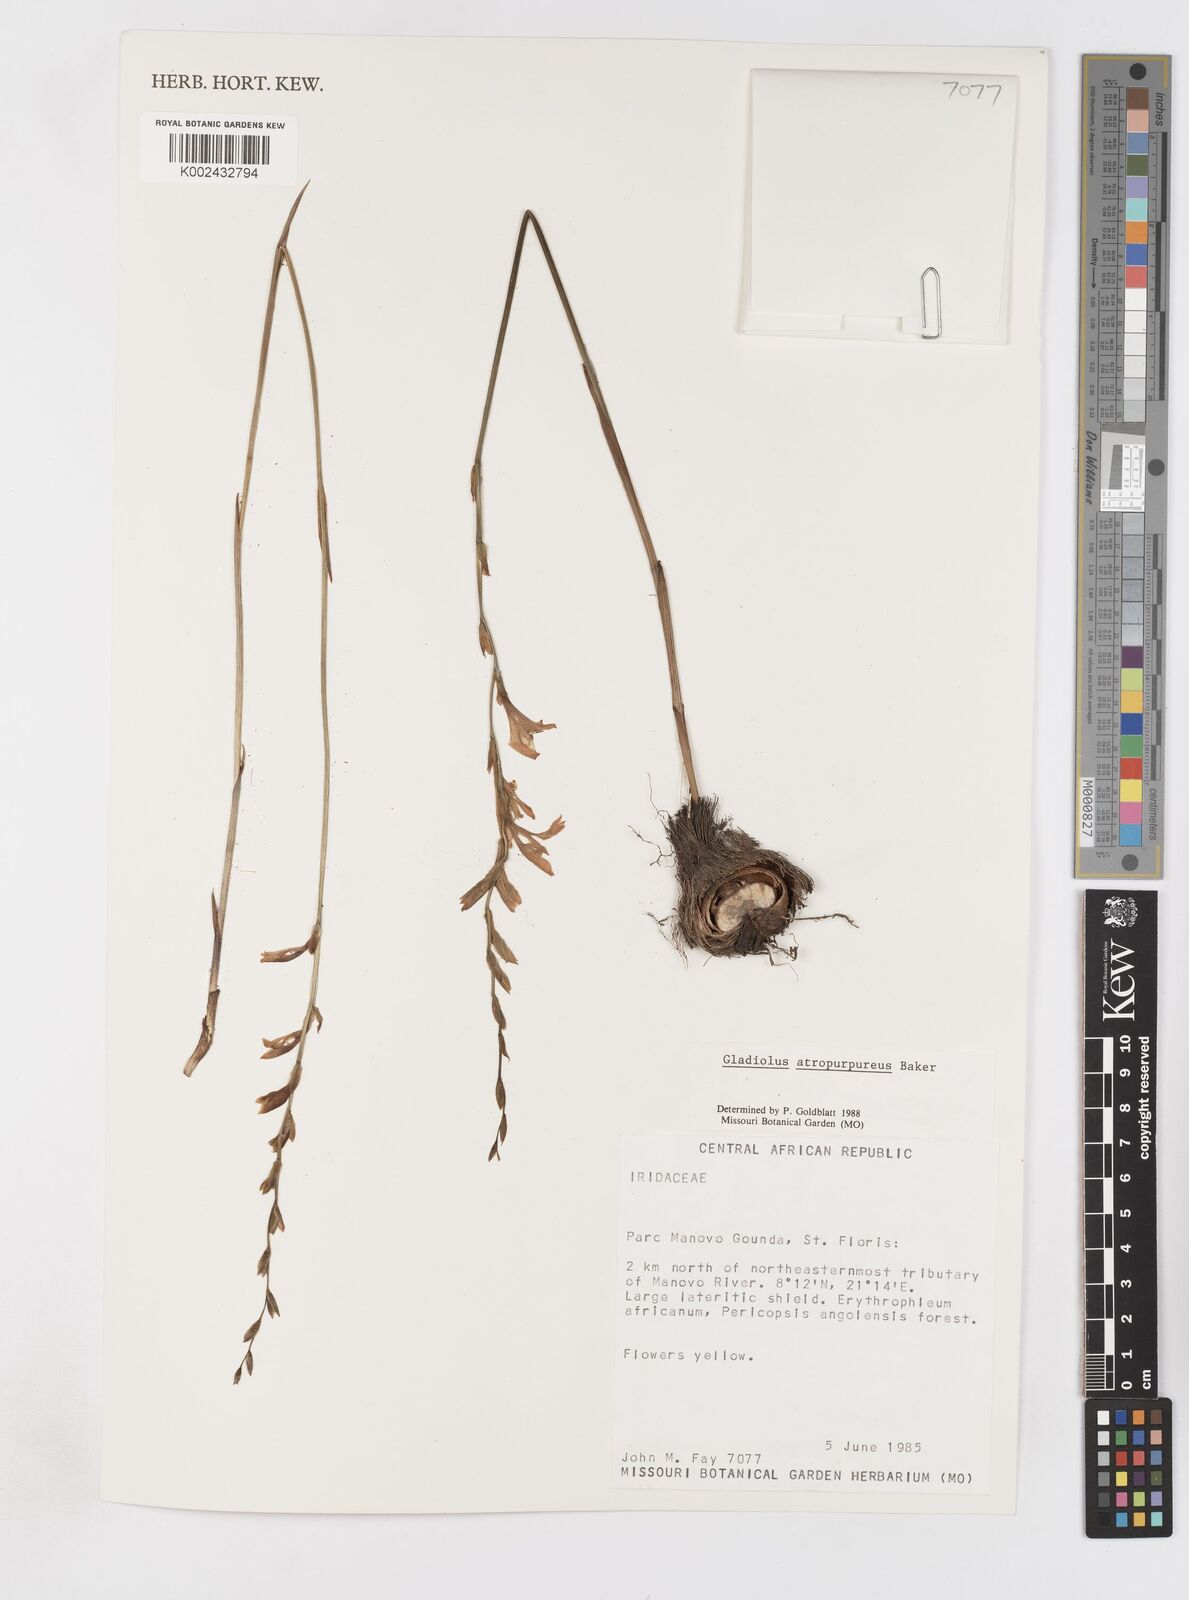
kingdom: Plantae
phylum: Tracheophyta
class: Liliopsida
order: Asparagales
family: Iridaceae
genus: Gladiolus
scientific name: Gladiolus atropurpureus
